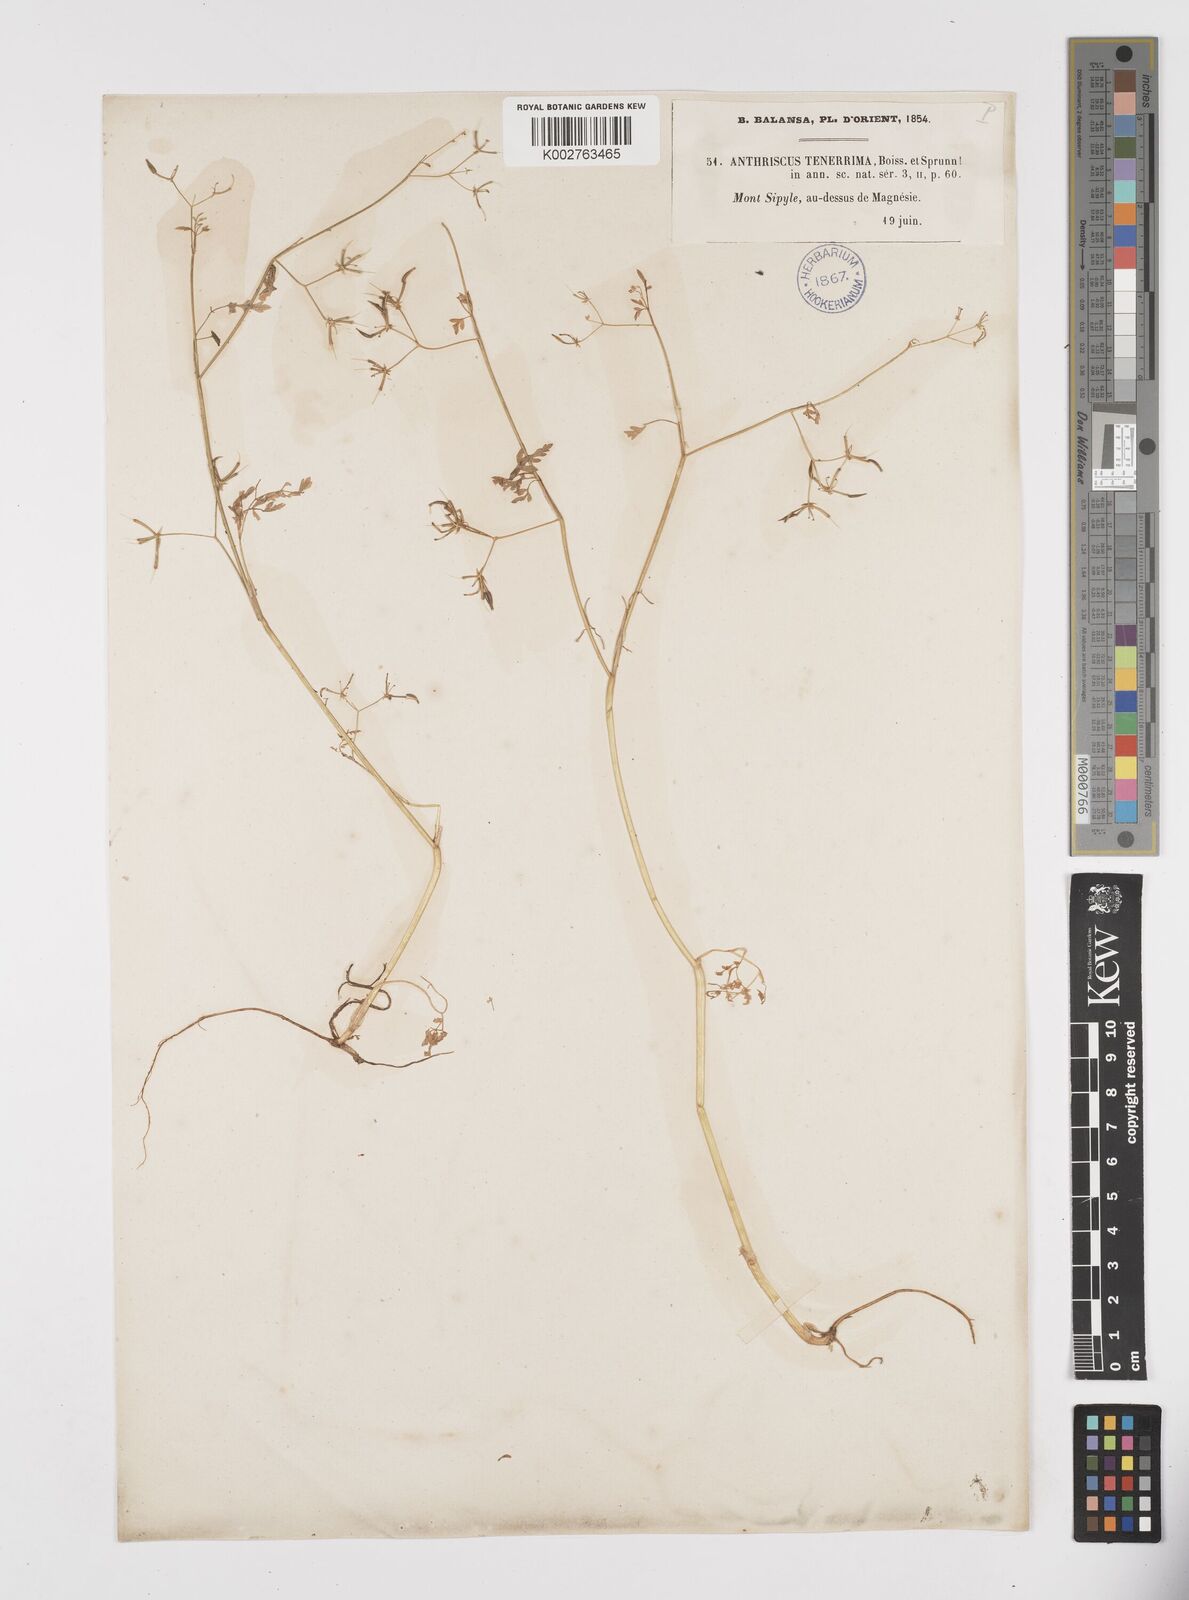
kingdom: Plantae
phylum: Tracheophyta
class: Magnoliopsida
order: Apiales
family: Apiaceae
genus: Anthriscus
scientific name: Anthriscus tenerrima
